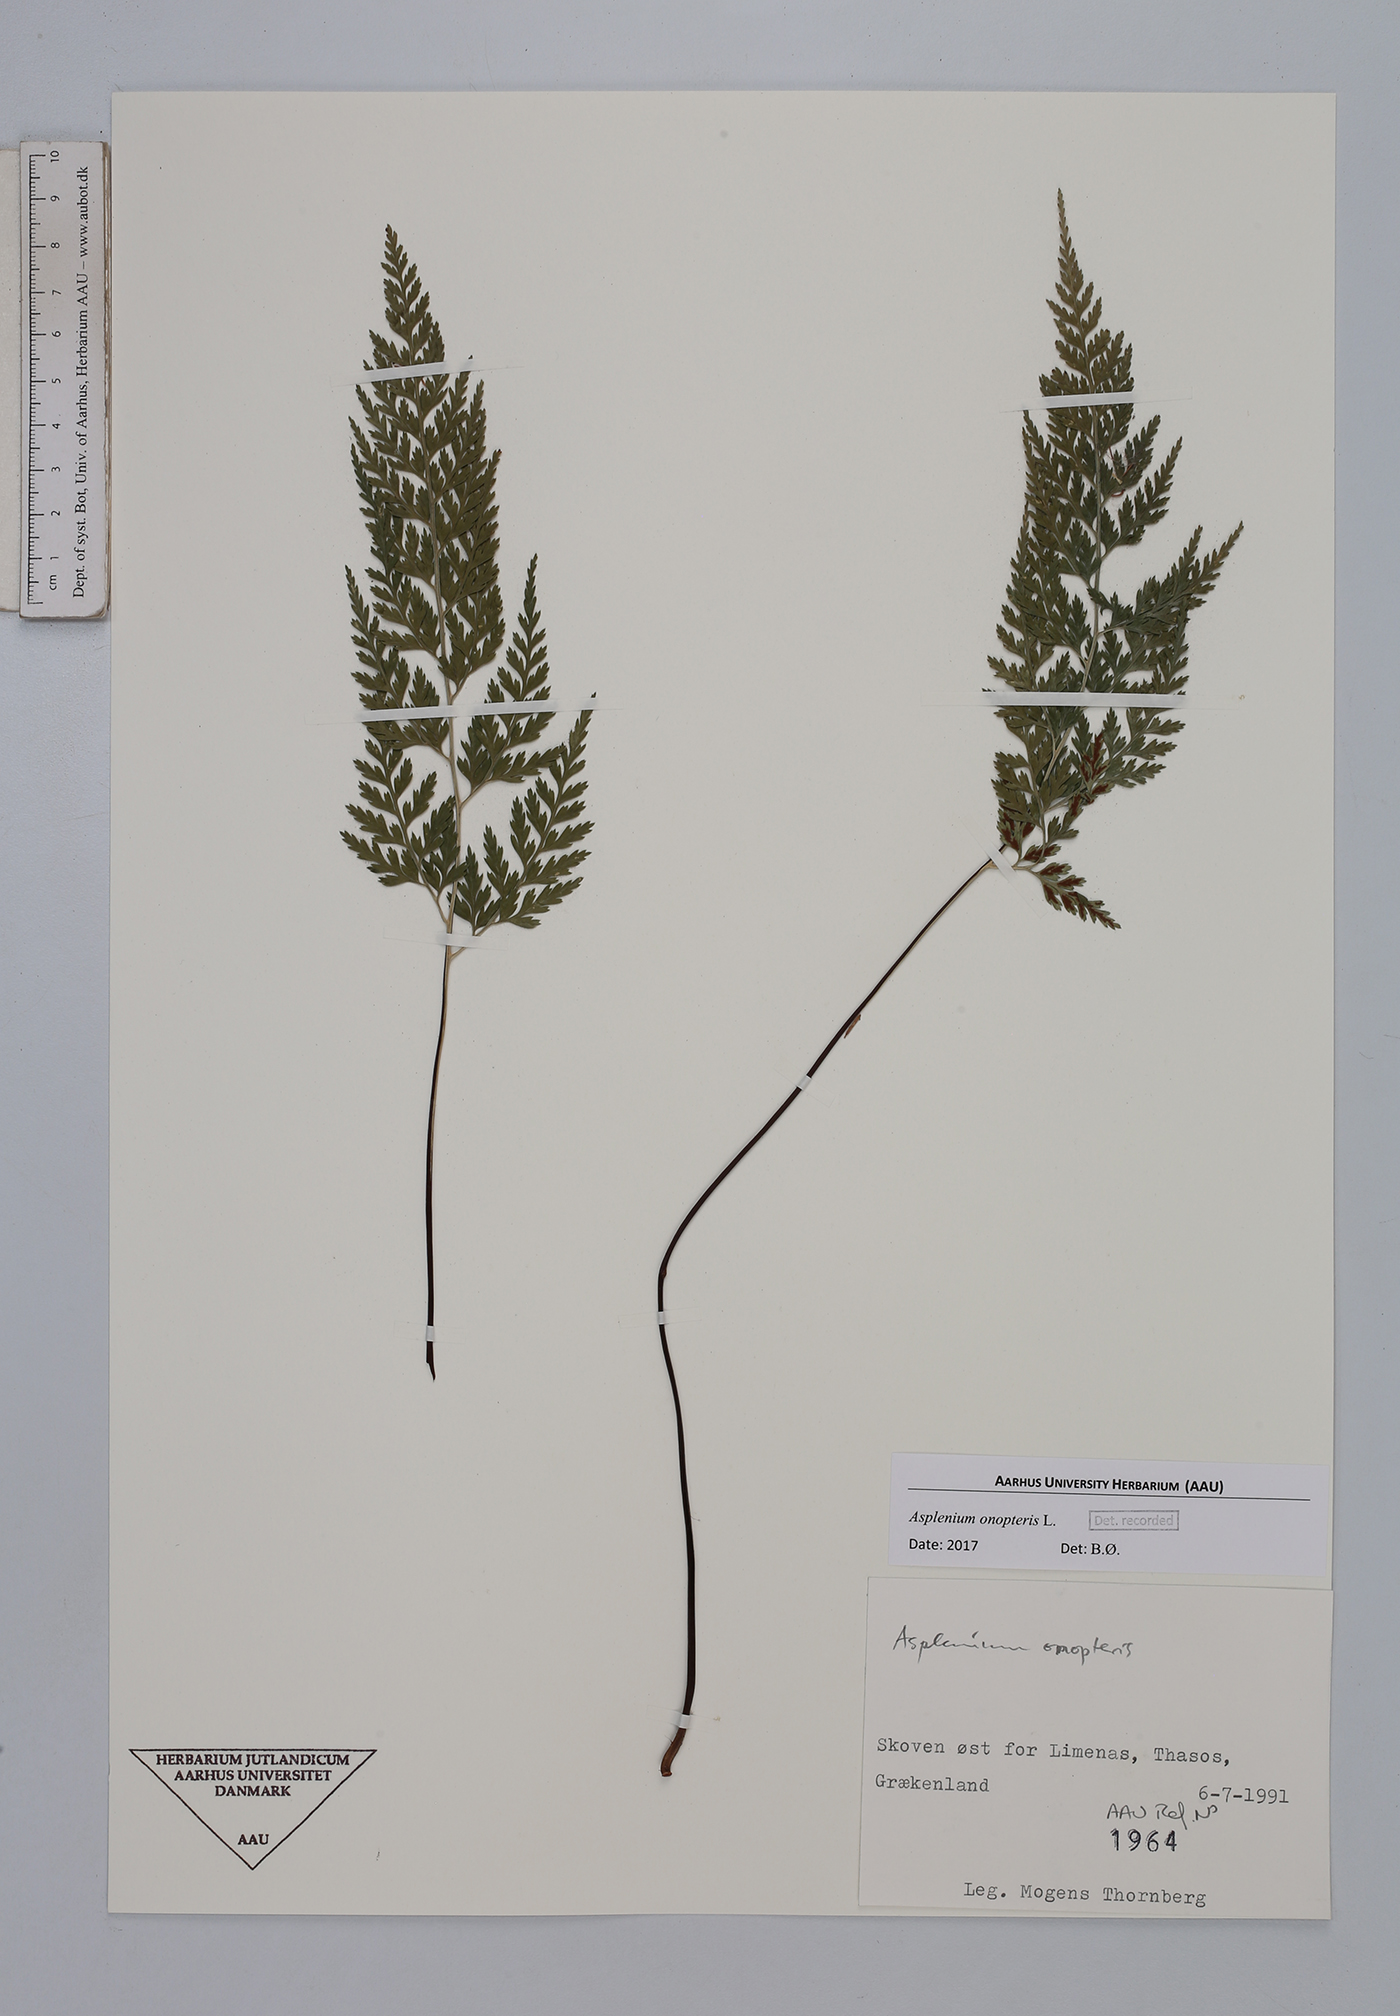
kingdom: Plantae
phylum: Tracheophyta
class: Polypodiopsida
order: Polypodiales
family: Aspleniaceae
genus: Asplenium
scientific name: Asplenium onopteris
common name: Irish spleenwort
